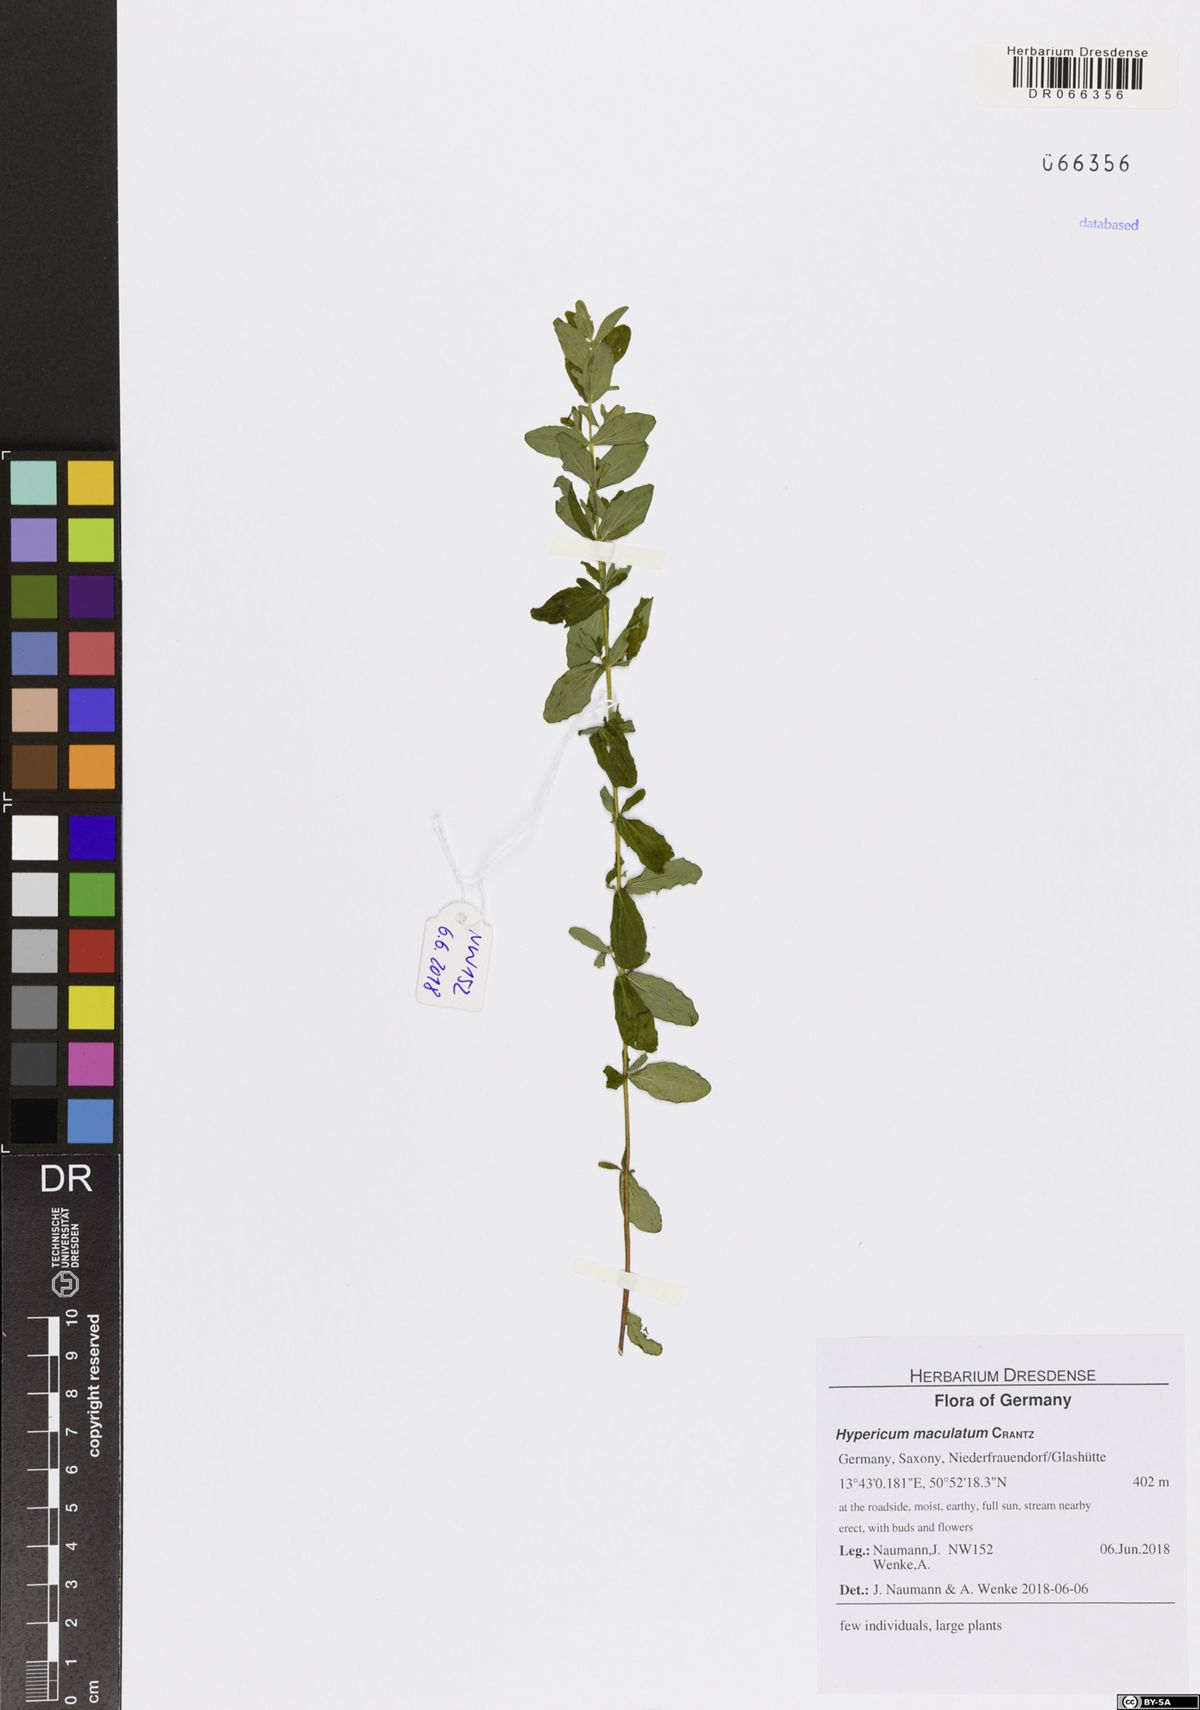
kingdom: Plantae
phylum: Tracheophyta
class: Magnoliopsida
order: Malpighiales
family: Hypericaceae
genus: Hypericum
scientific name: Hypericum maculatum
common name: Imperforate st. john's-wort
